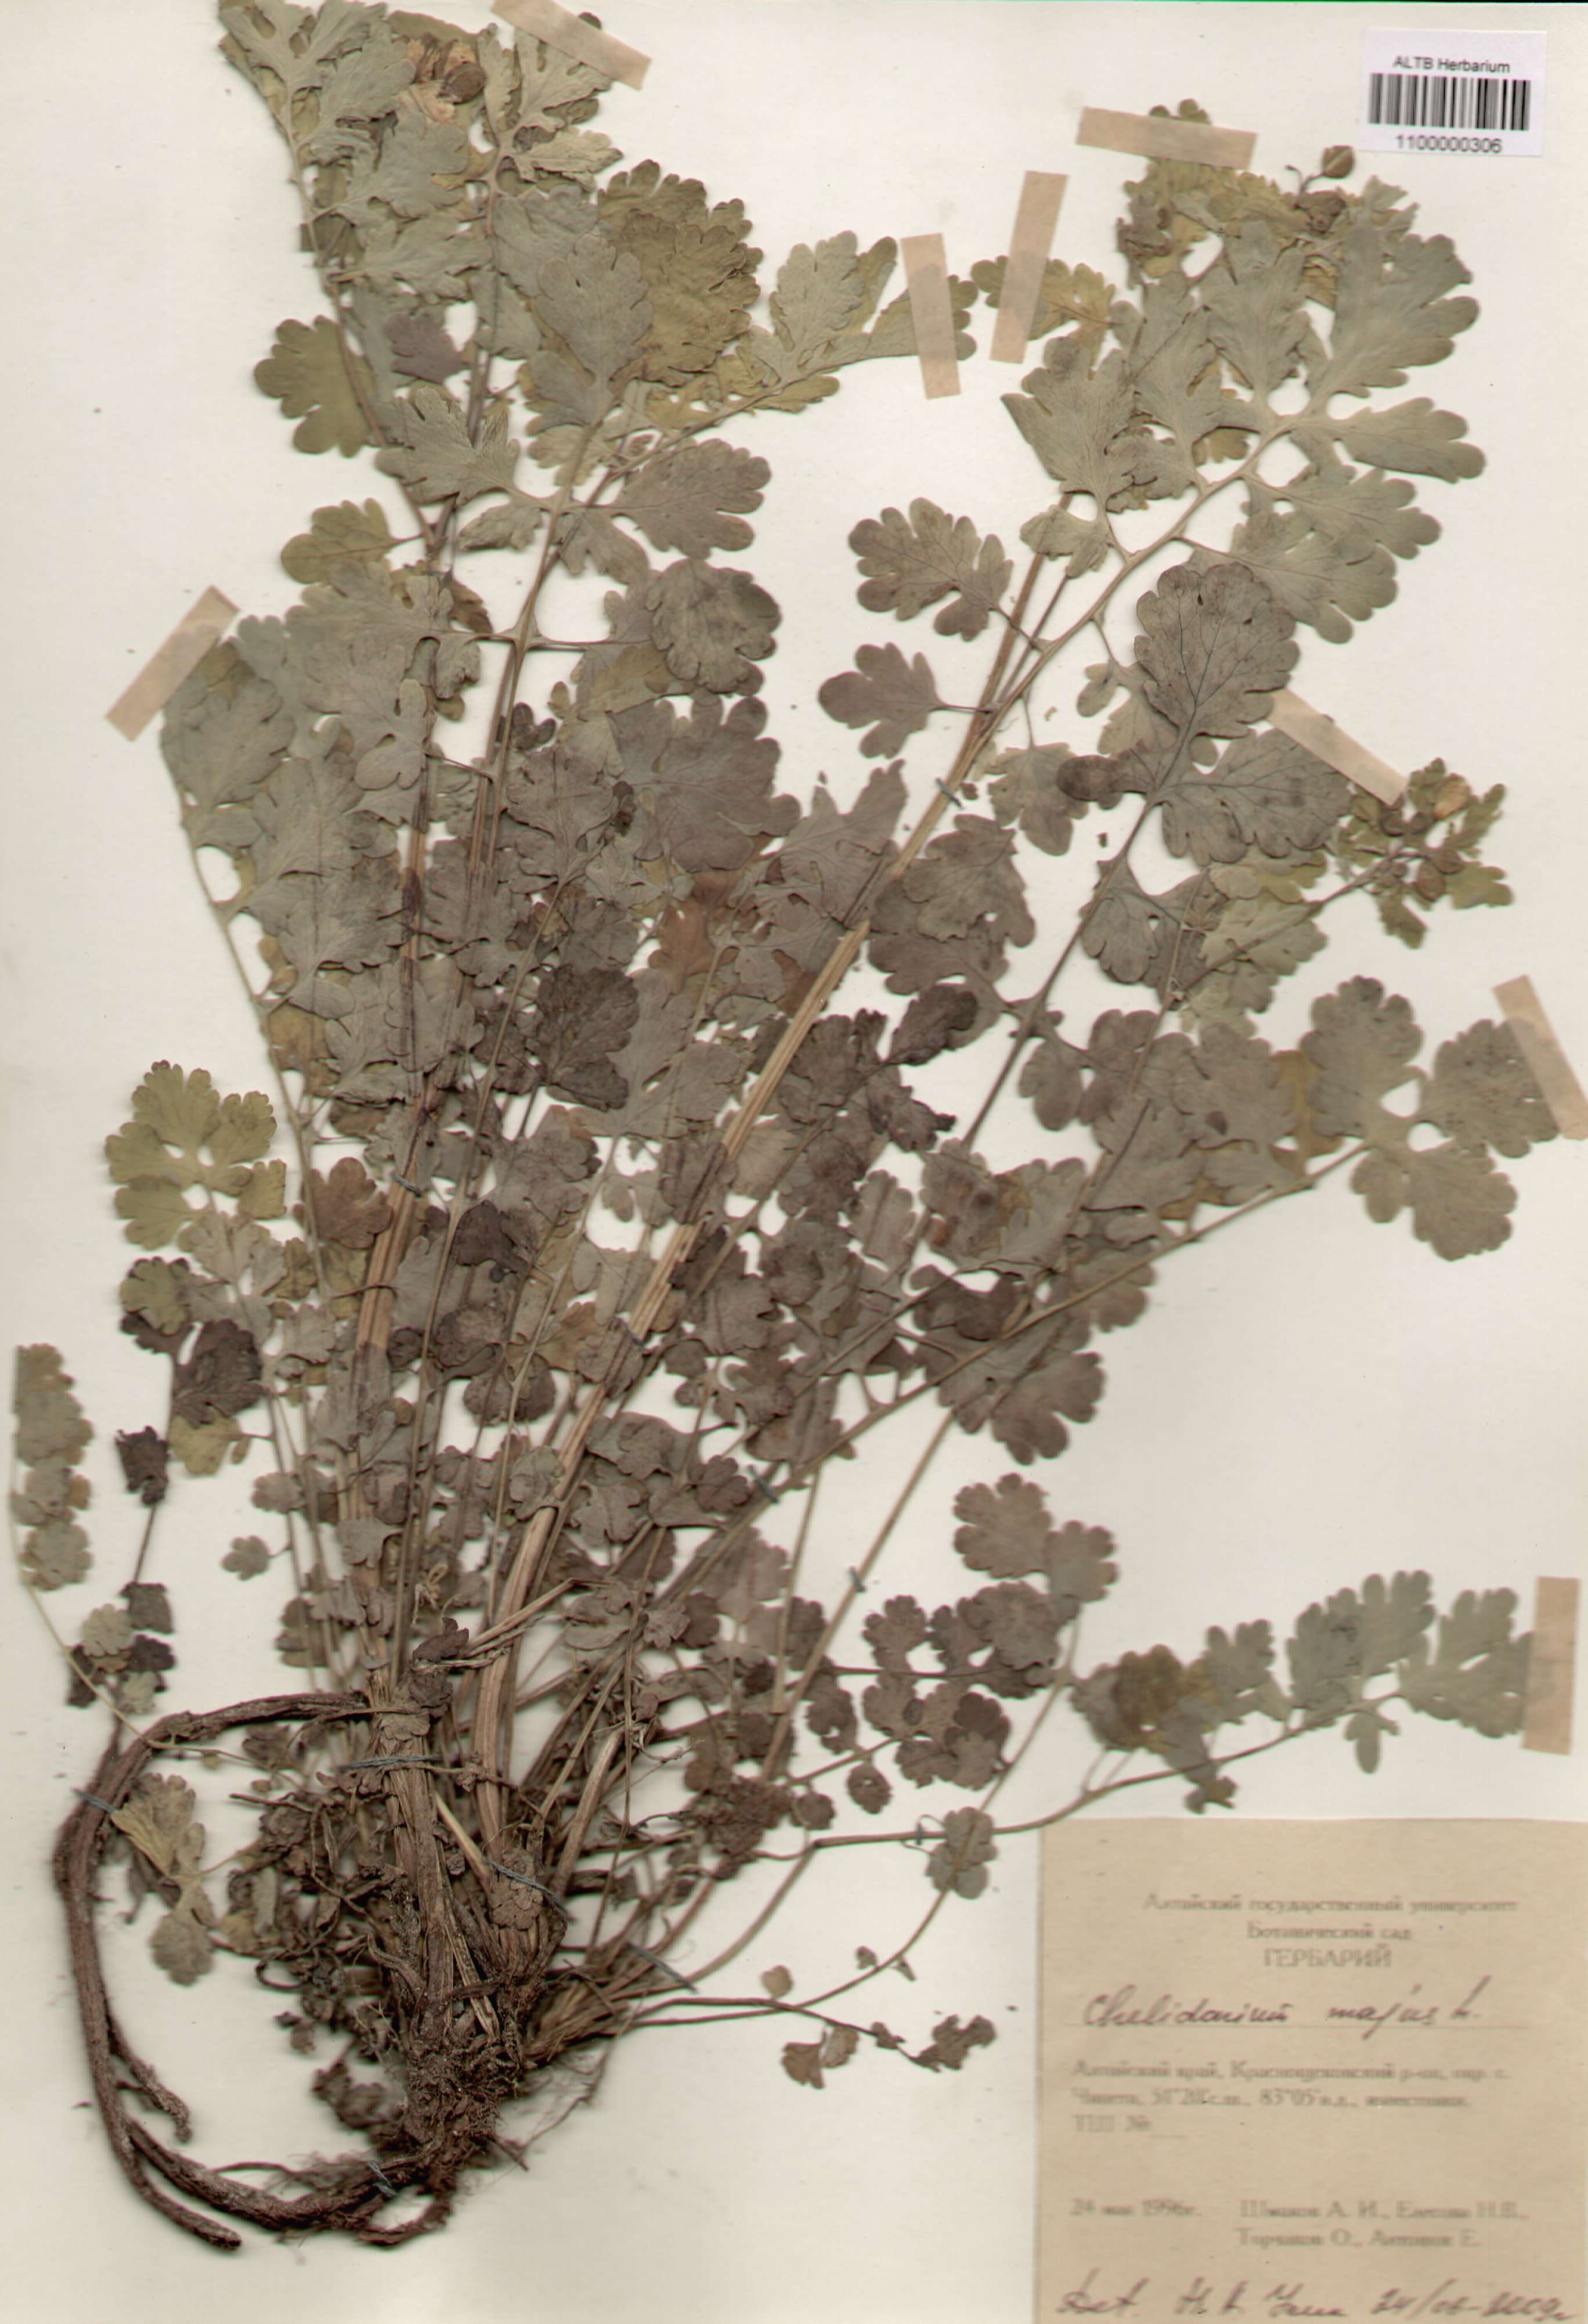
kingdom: Plantae
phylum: Tracheophyta
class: Magnoliopsida
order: Ranunculales
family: Papaveraceae
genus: Chelidonium
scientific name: Chelidonium majus
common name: Greater celandine
